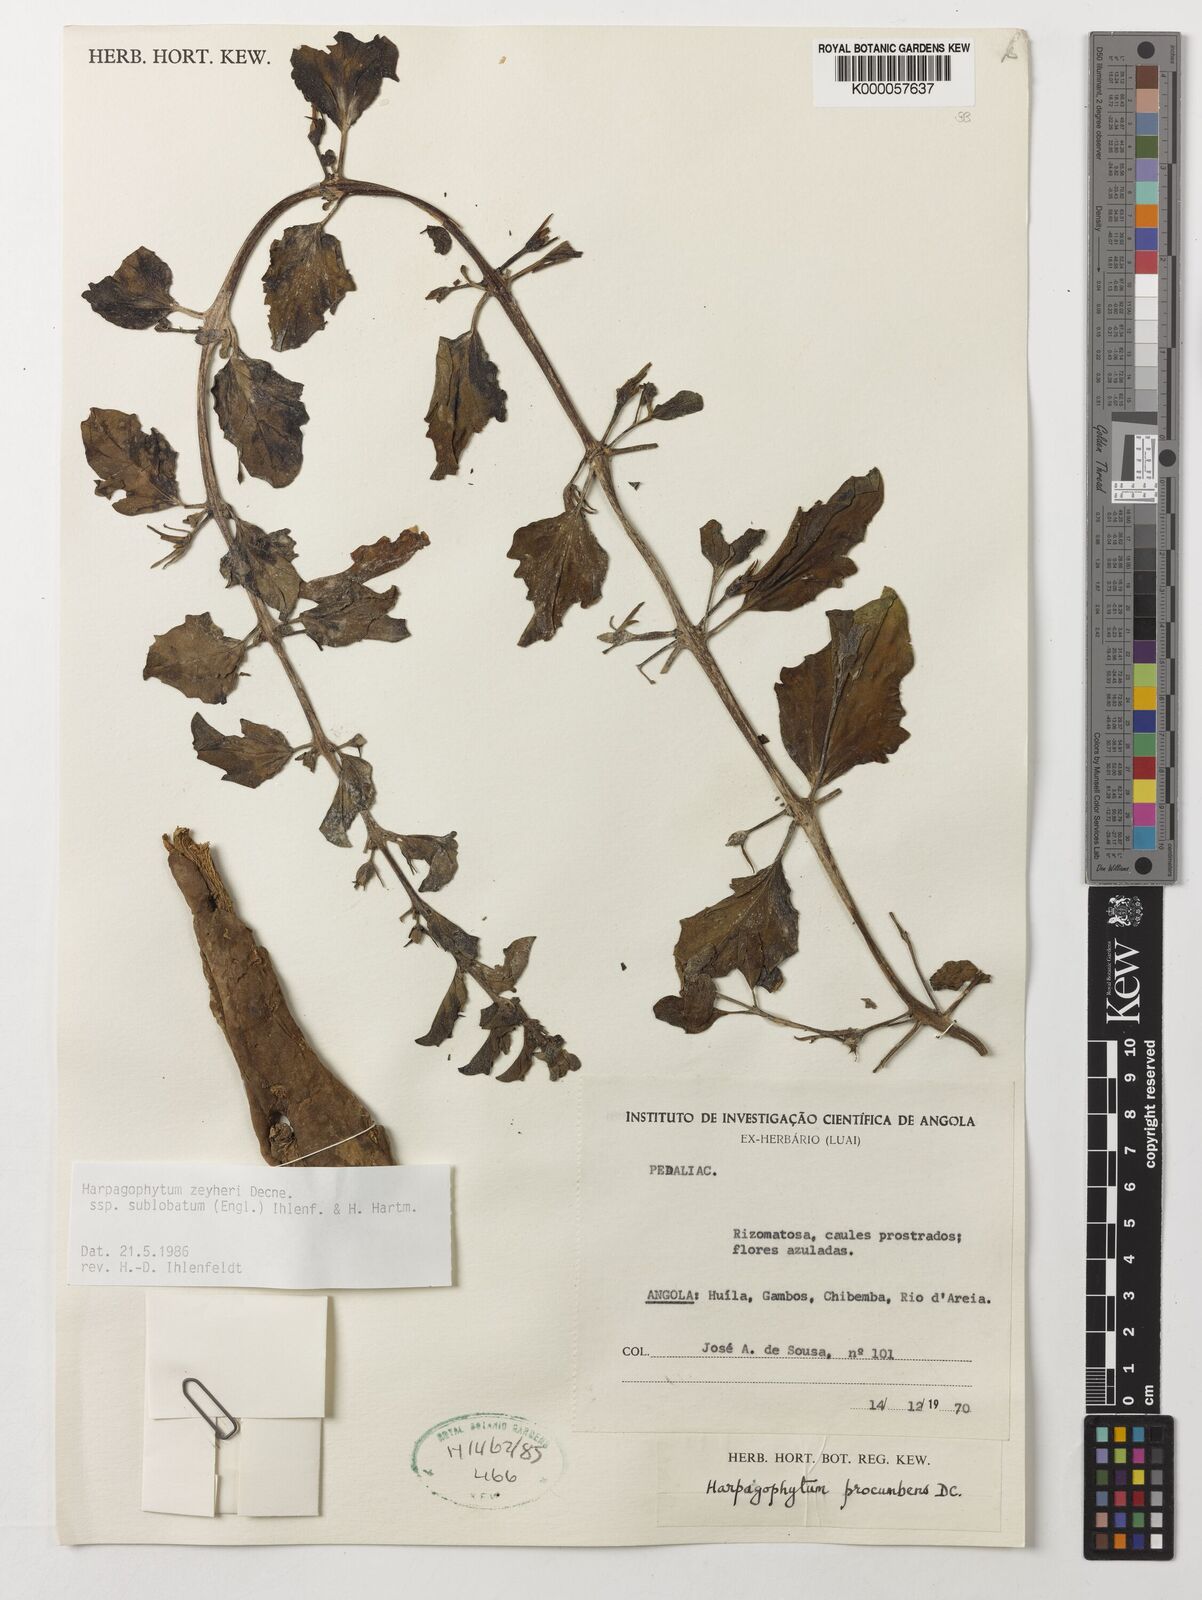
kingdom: Plantae
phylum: Tracheophyta
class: Magnoliopsida
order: Lamiales
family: Pedaliaceae
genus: Harpagophytum
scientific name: Harpagophytum zeyheri
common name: Grappleplant
